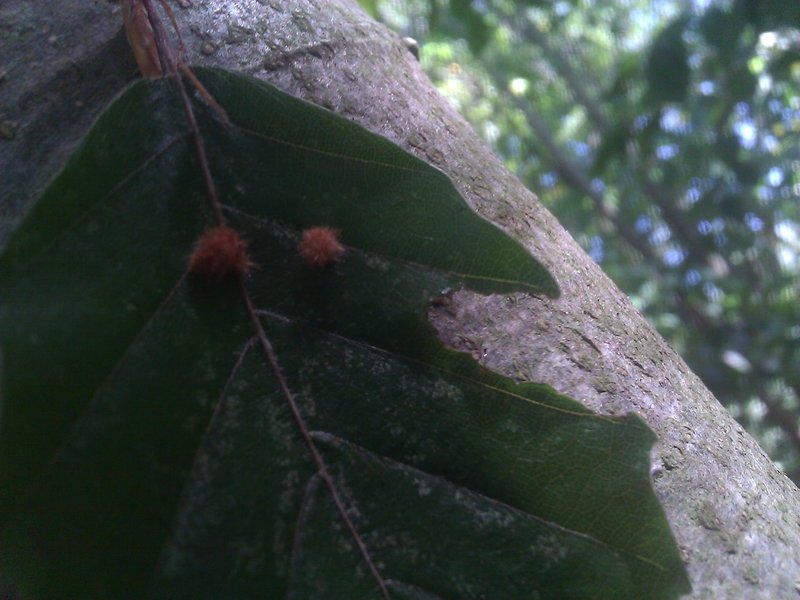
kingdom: Animalia
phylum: Arthropoda
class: Insecta
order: Diptera
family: Cecidomyiidae
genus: Hartigiola
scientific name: Hartigiola annulipes
